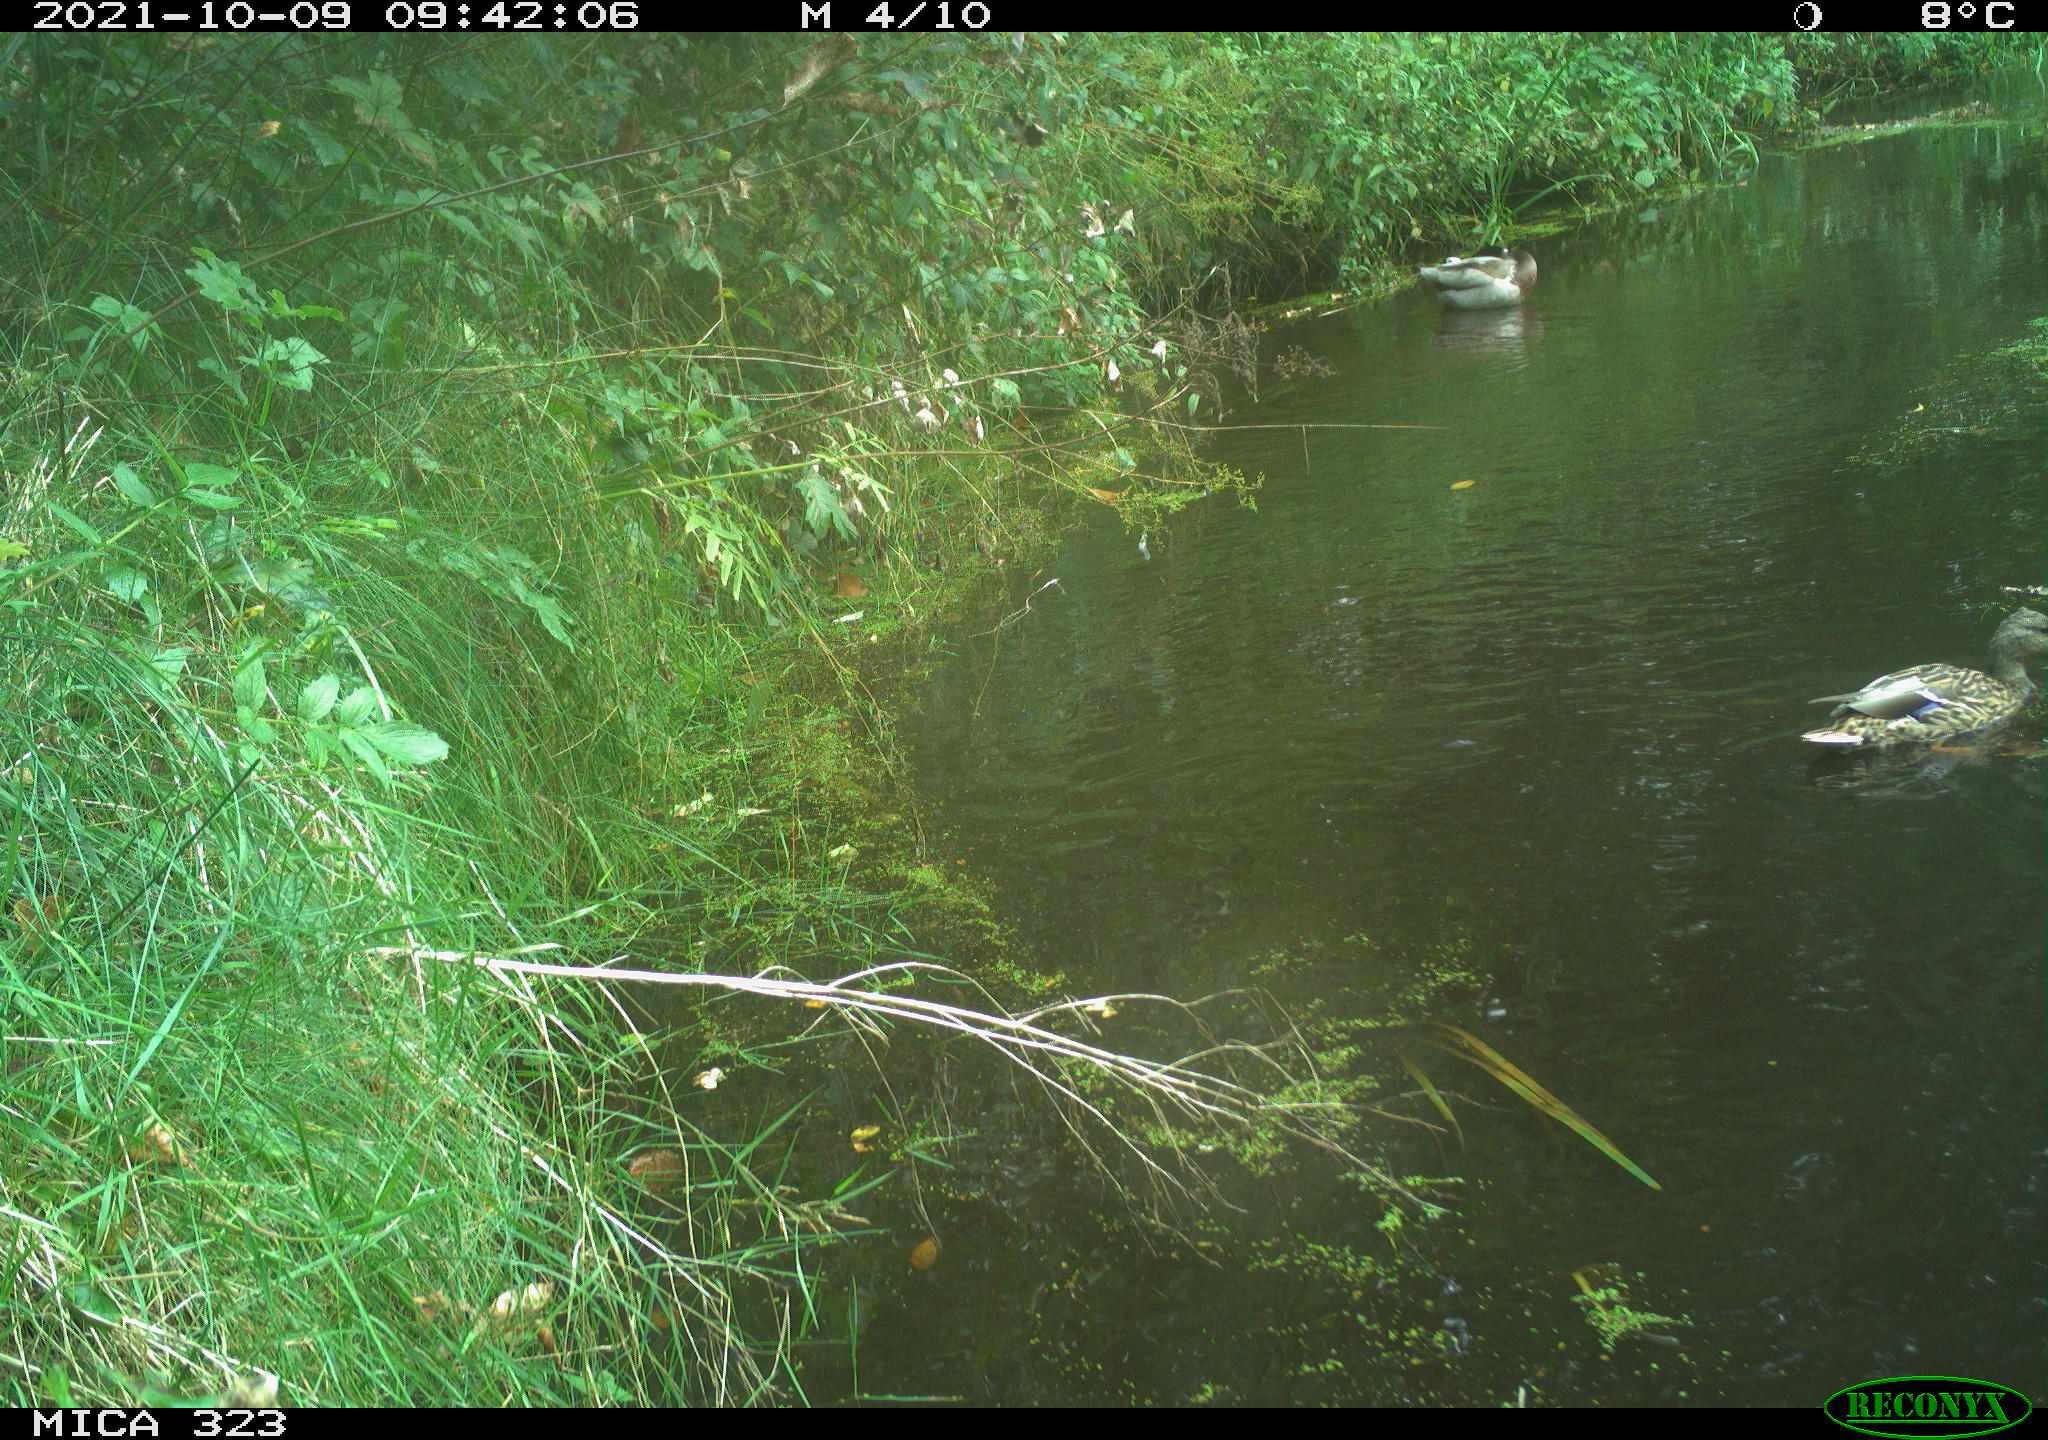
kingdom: Animalia
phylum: Chordata
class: Aves
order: Anseriformes
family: Anatidae
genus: Anas
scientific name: Anas platyrhynchos
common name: Mallard
